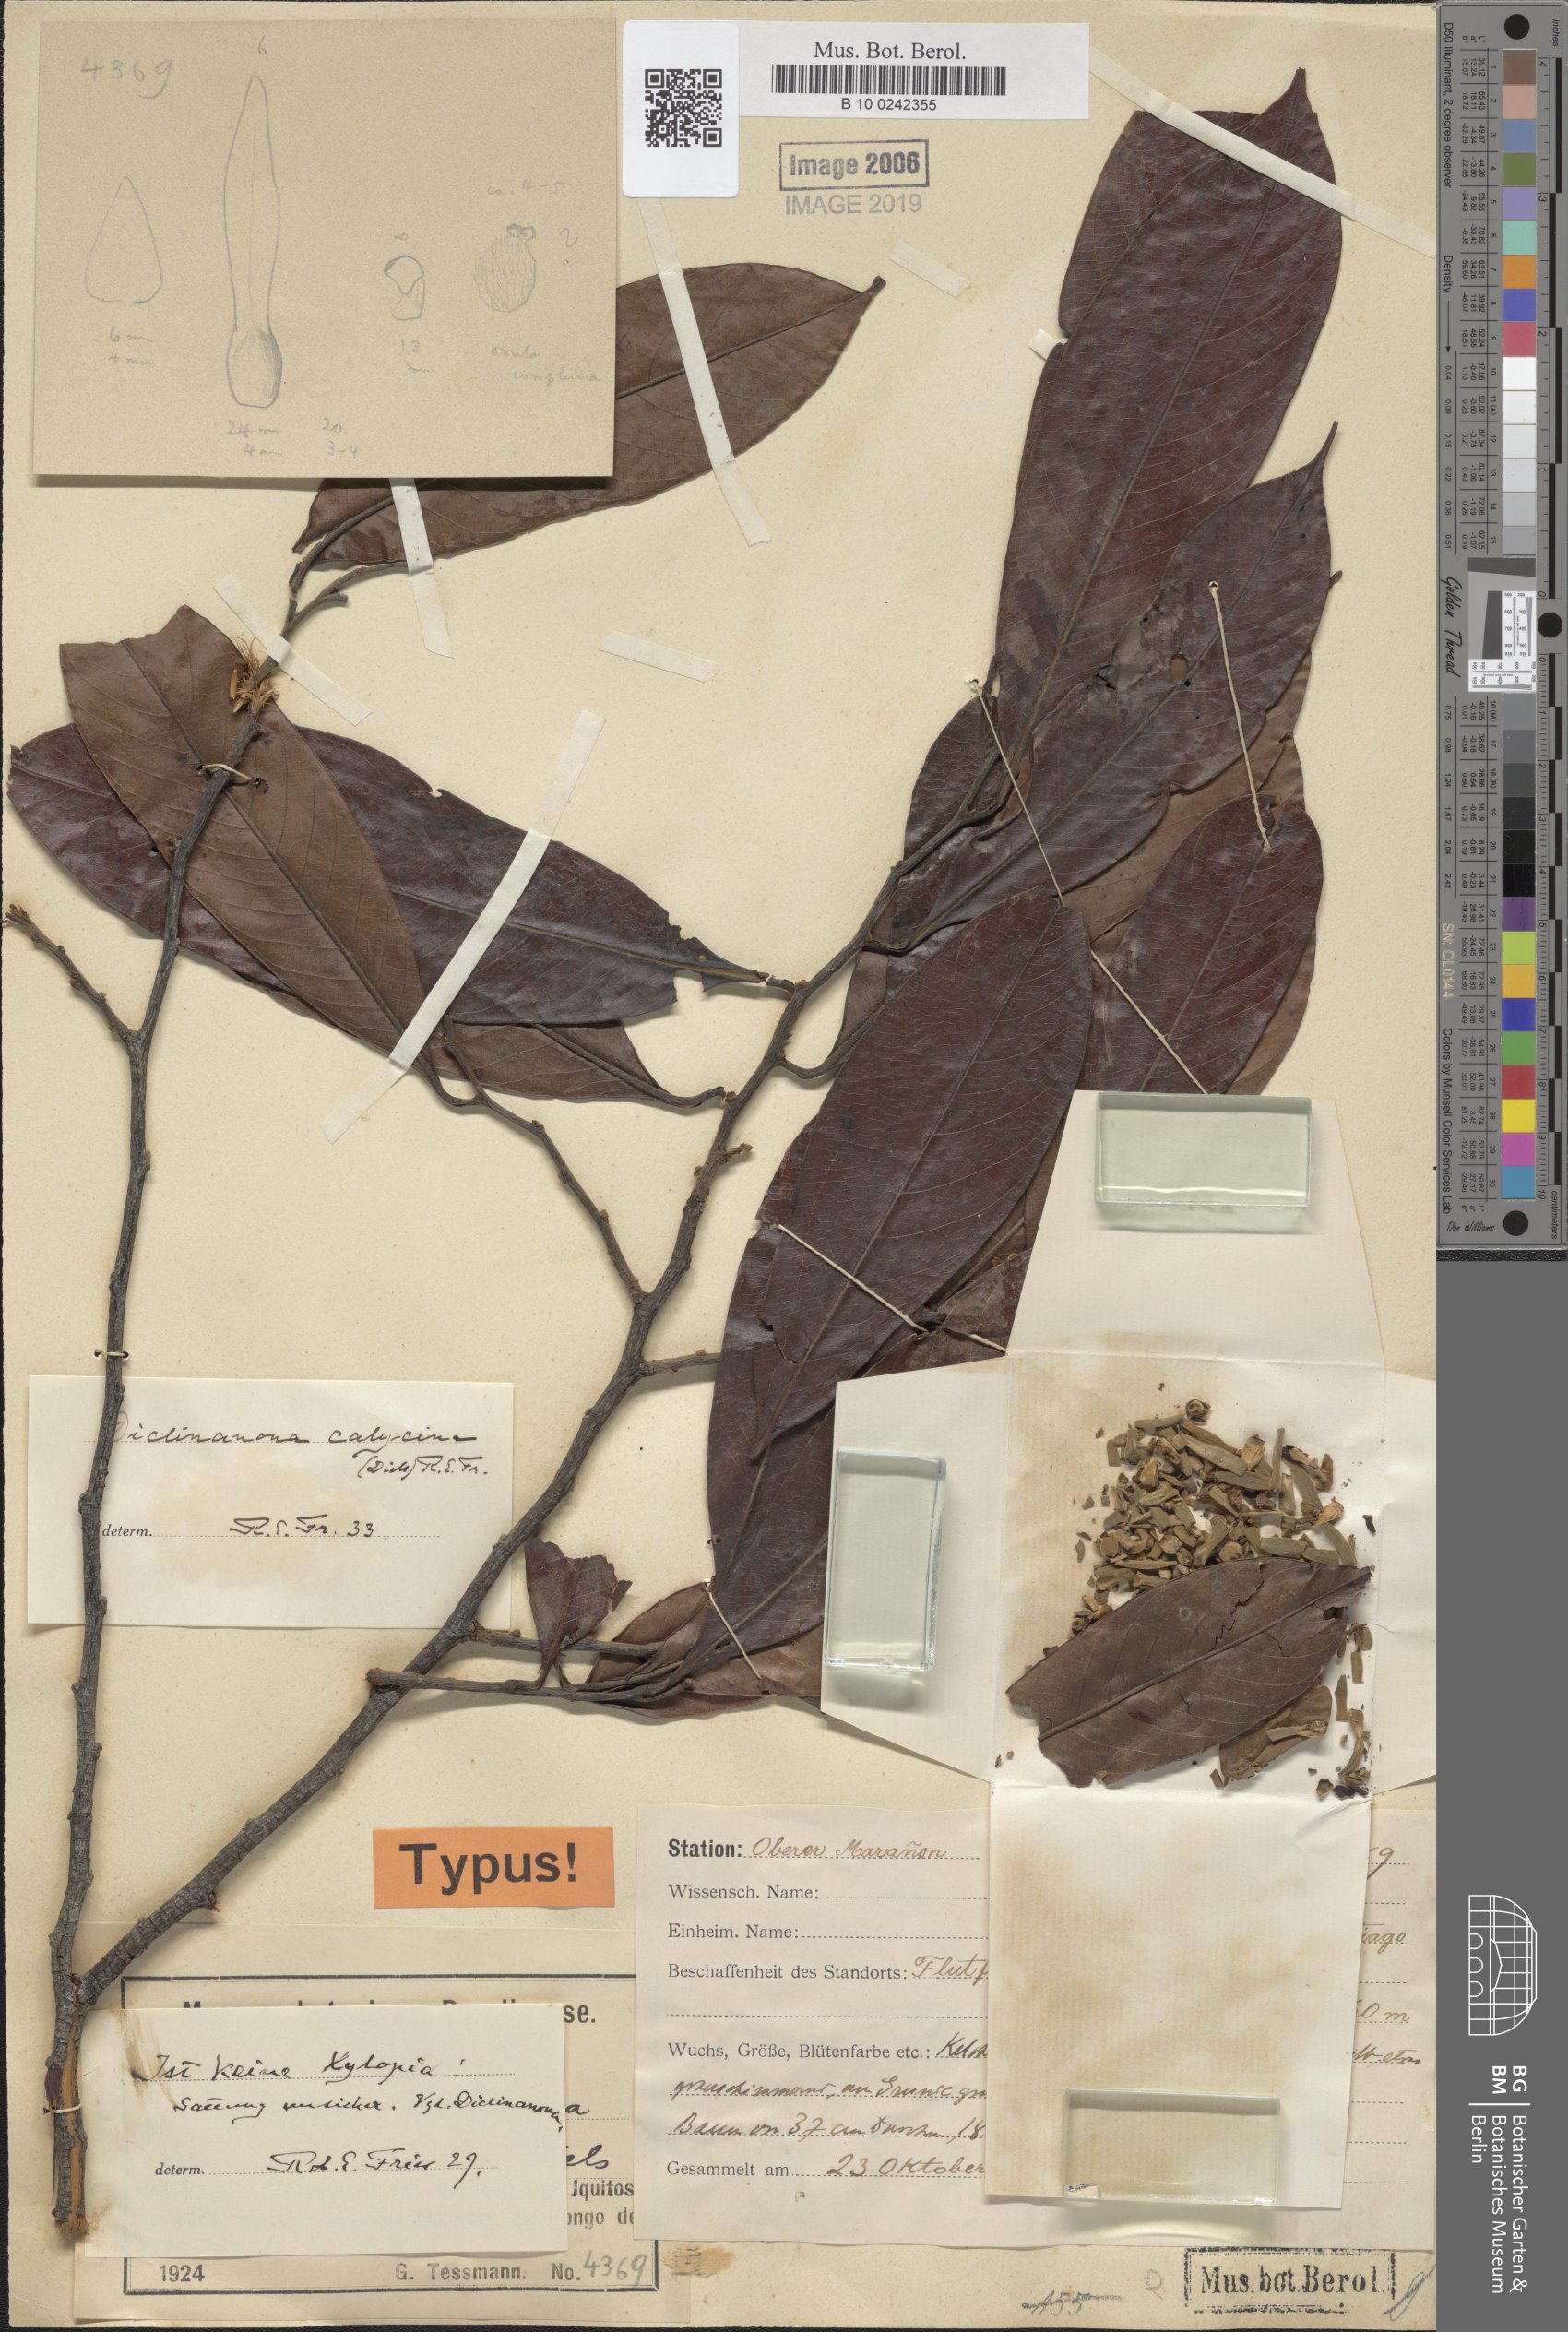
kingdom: Plantae
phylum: Tracheophyta
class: Magnoliopsida
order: Magnoliales
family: Annonaceae
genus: Diclinanona
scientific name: Diclinanona calycina
